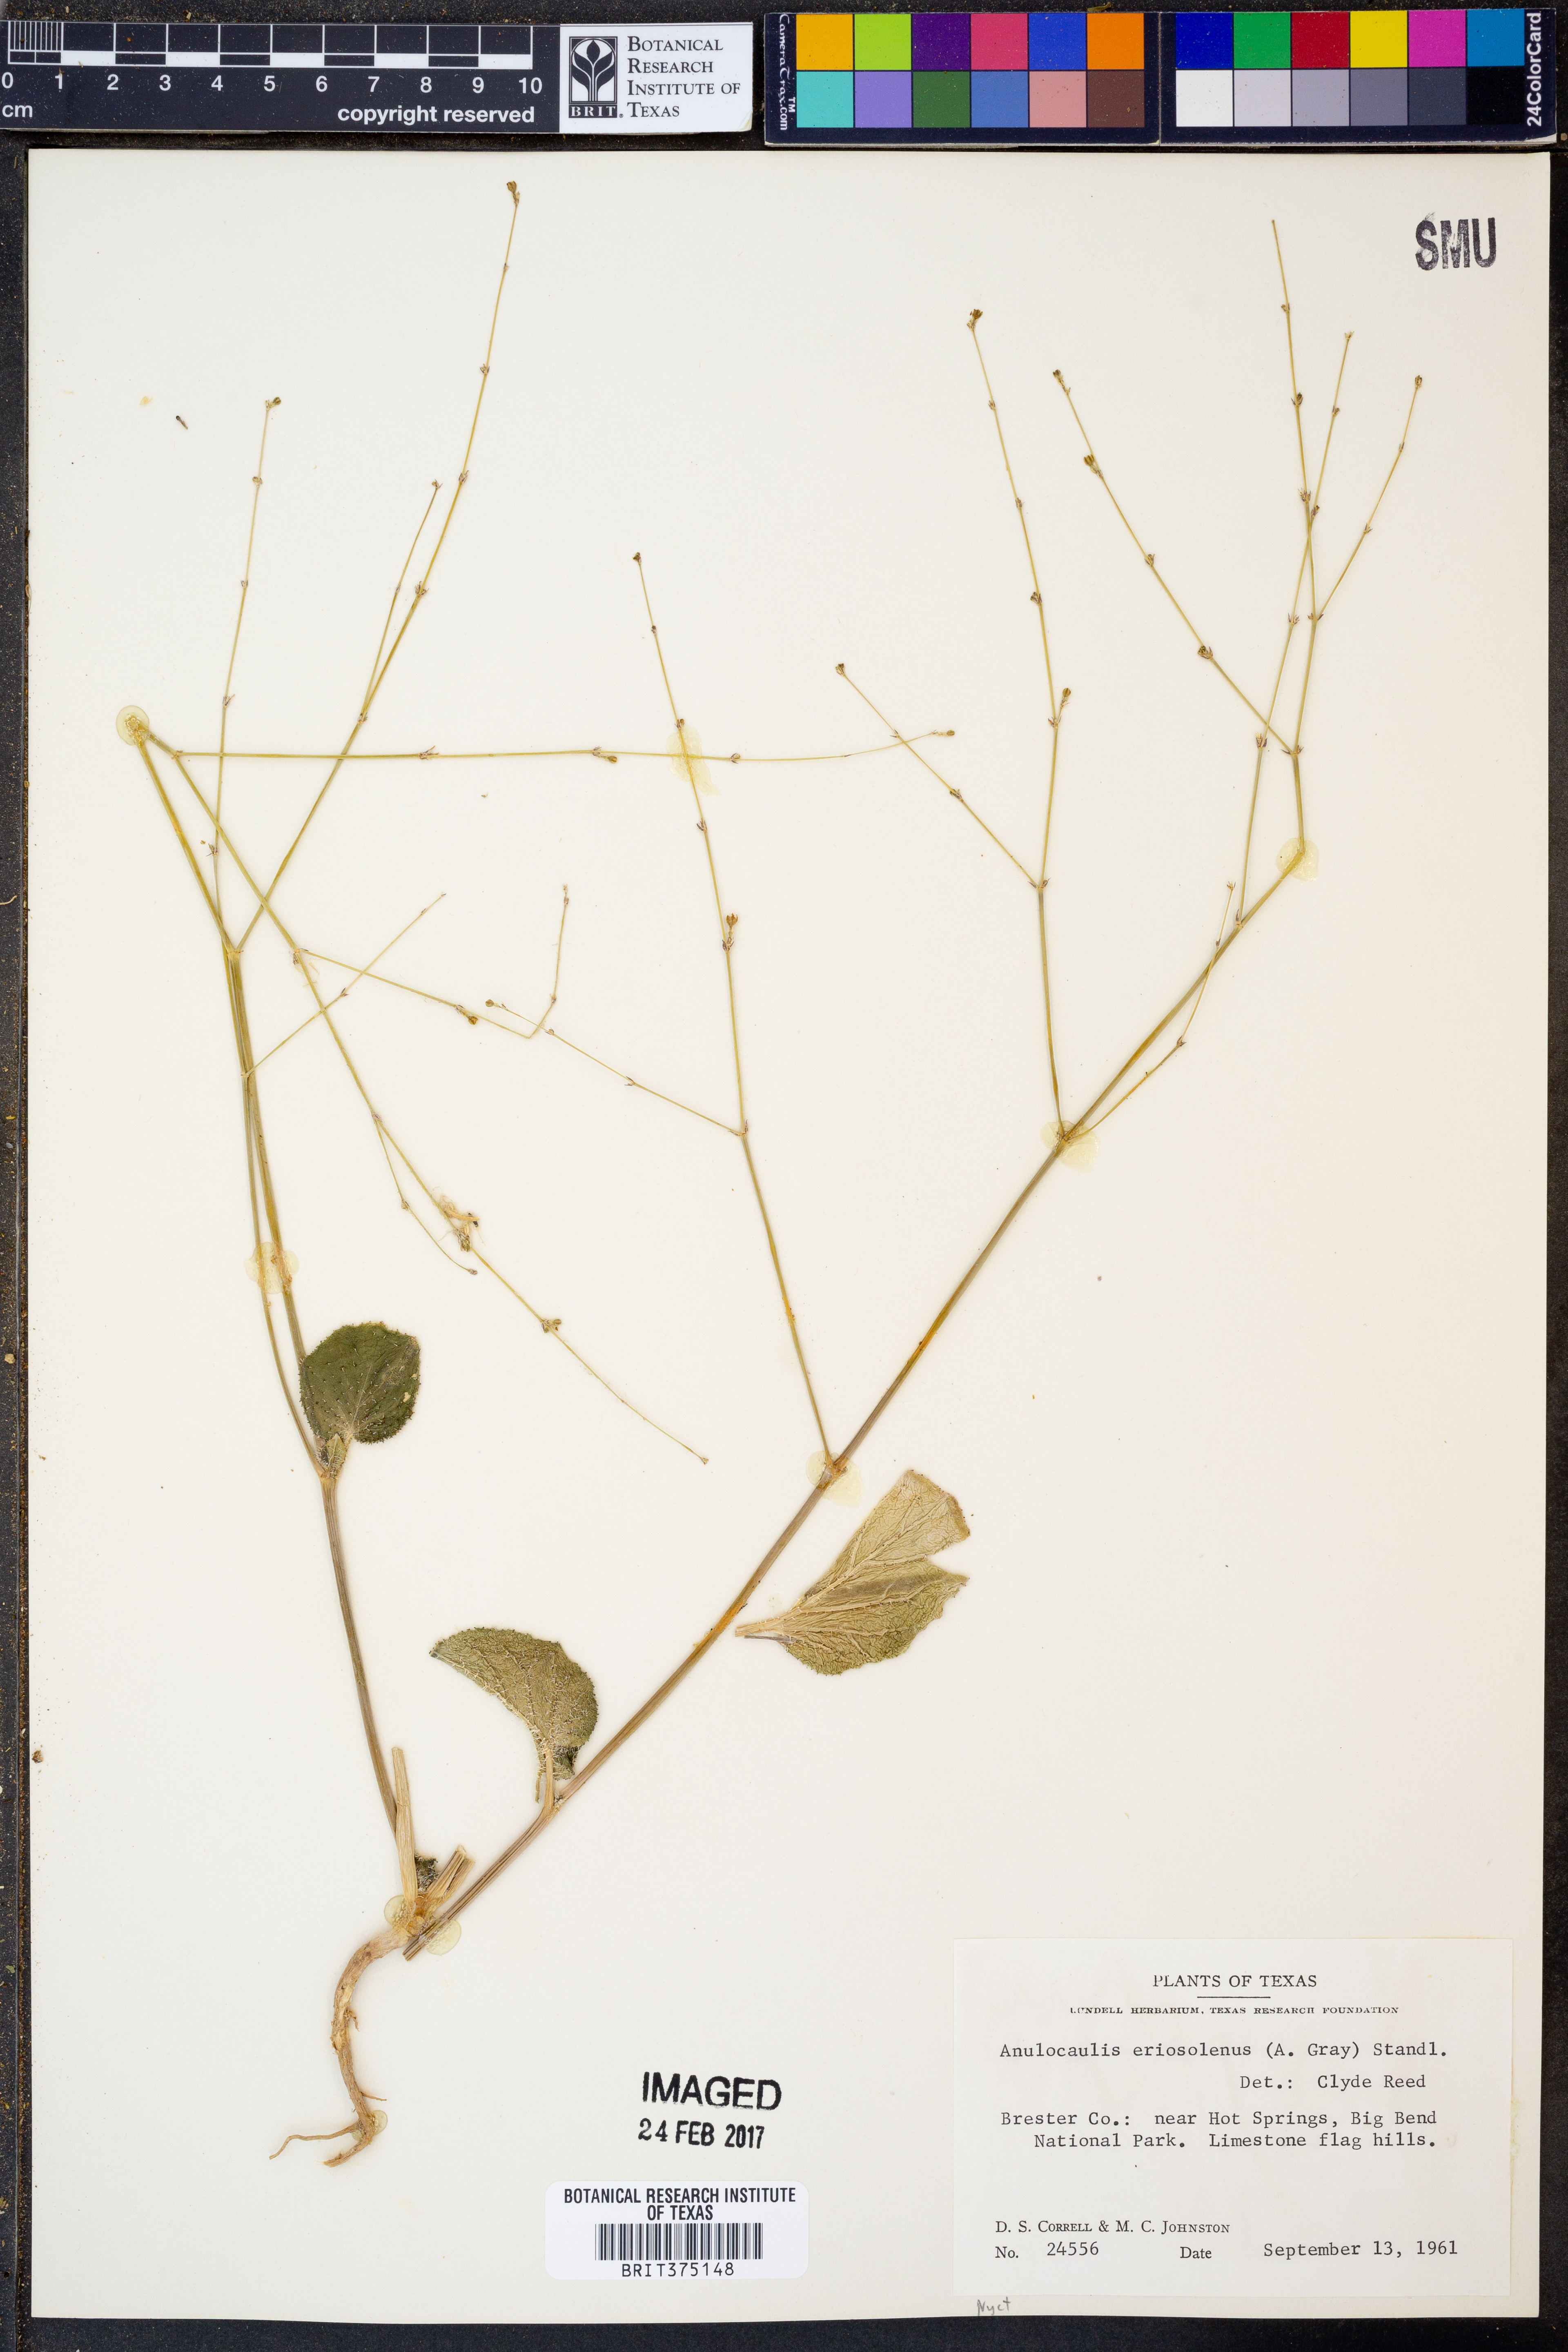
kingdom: Plantae
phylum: Tracheophyta
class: Magnoliopsida
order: Caryophyllales
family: Nyctaginaceae
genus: Anulocaulis
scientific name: Anulocaulis eriosolenus
